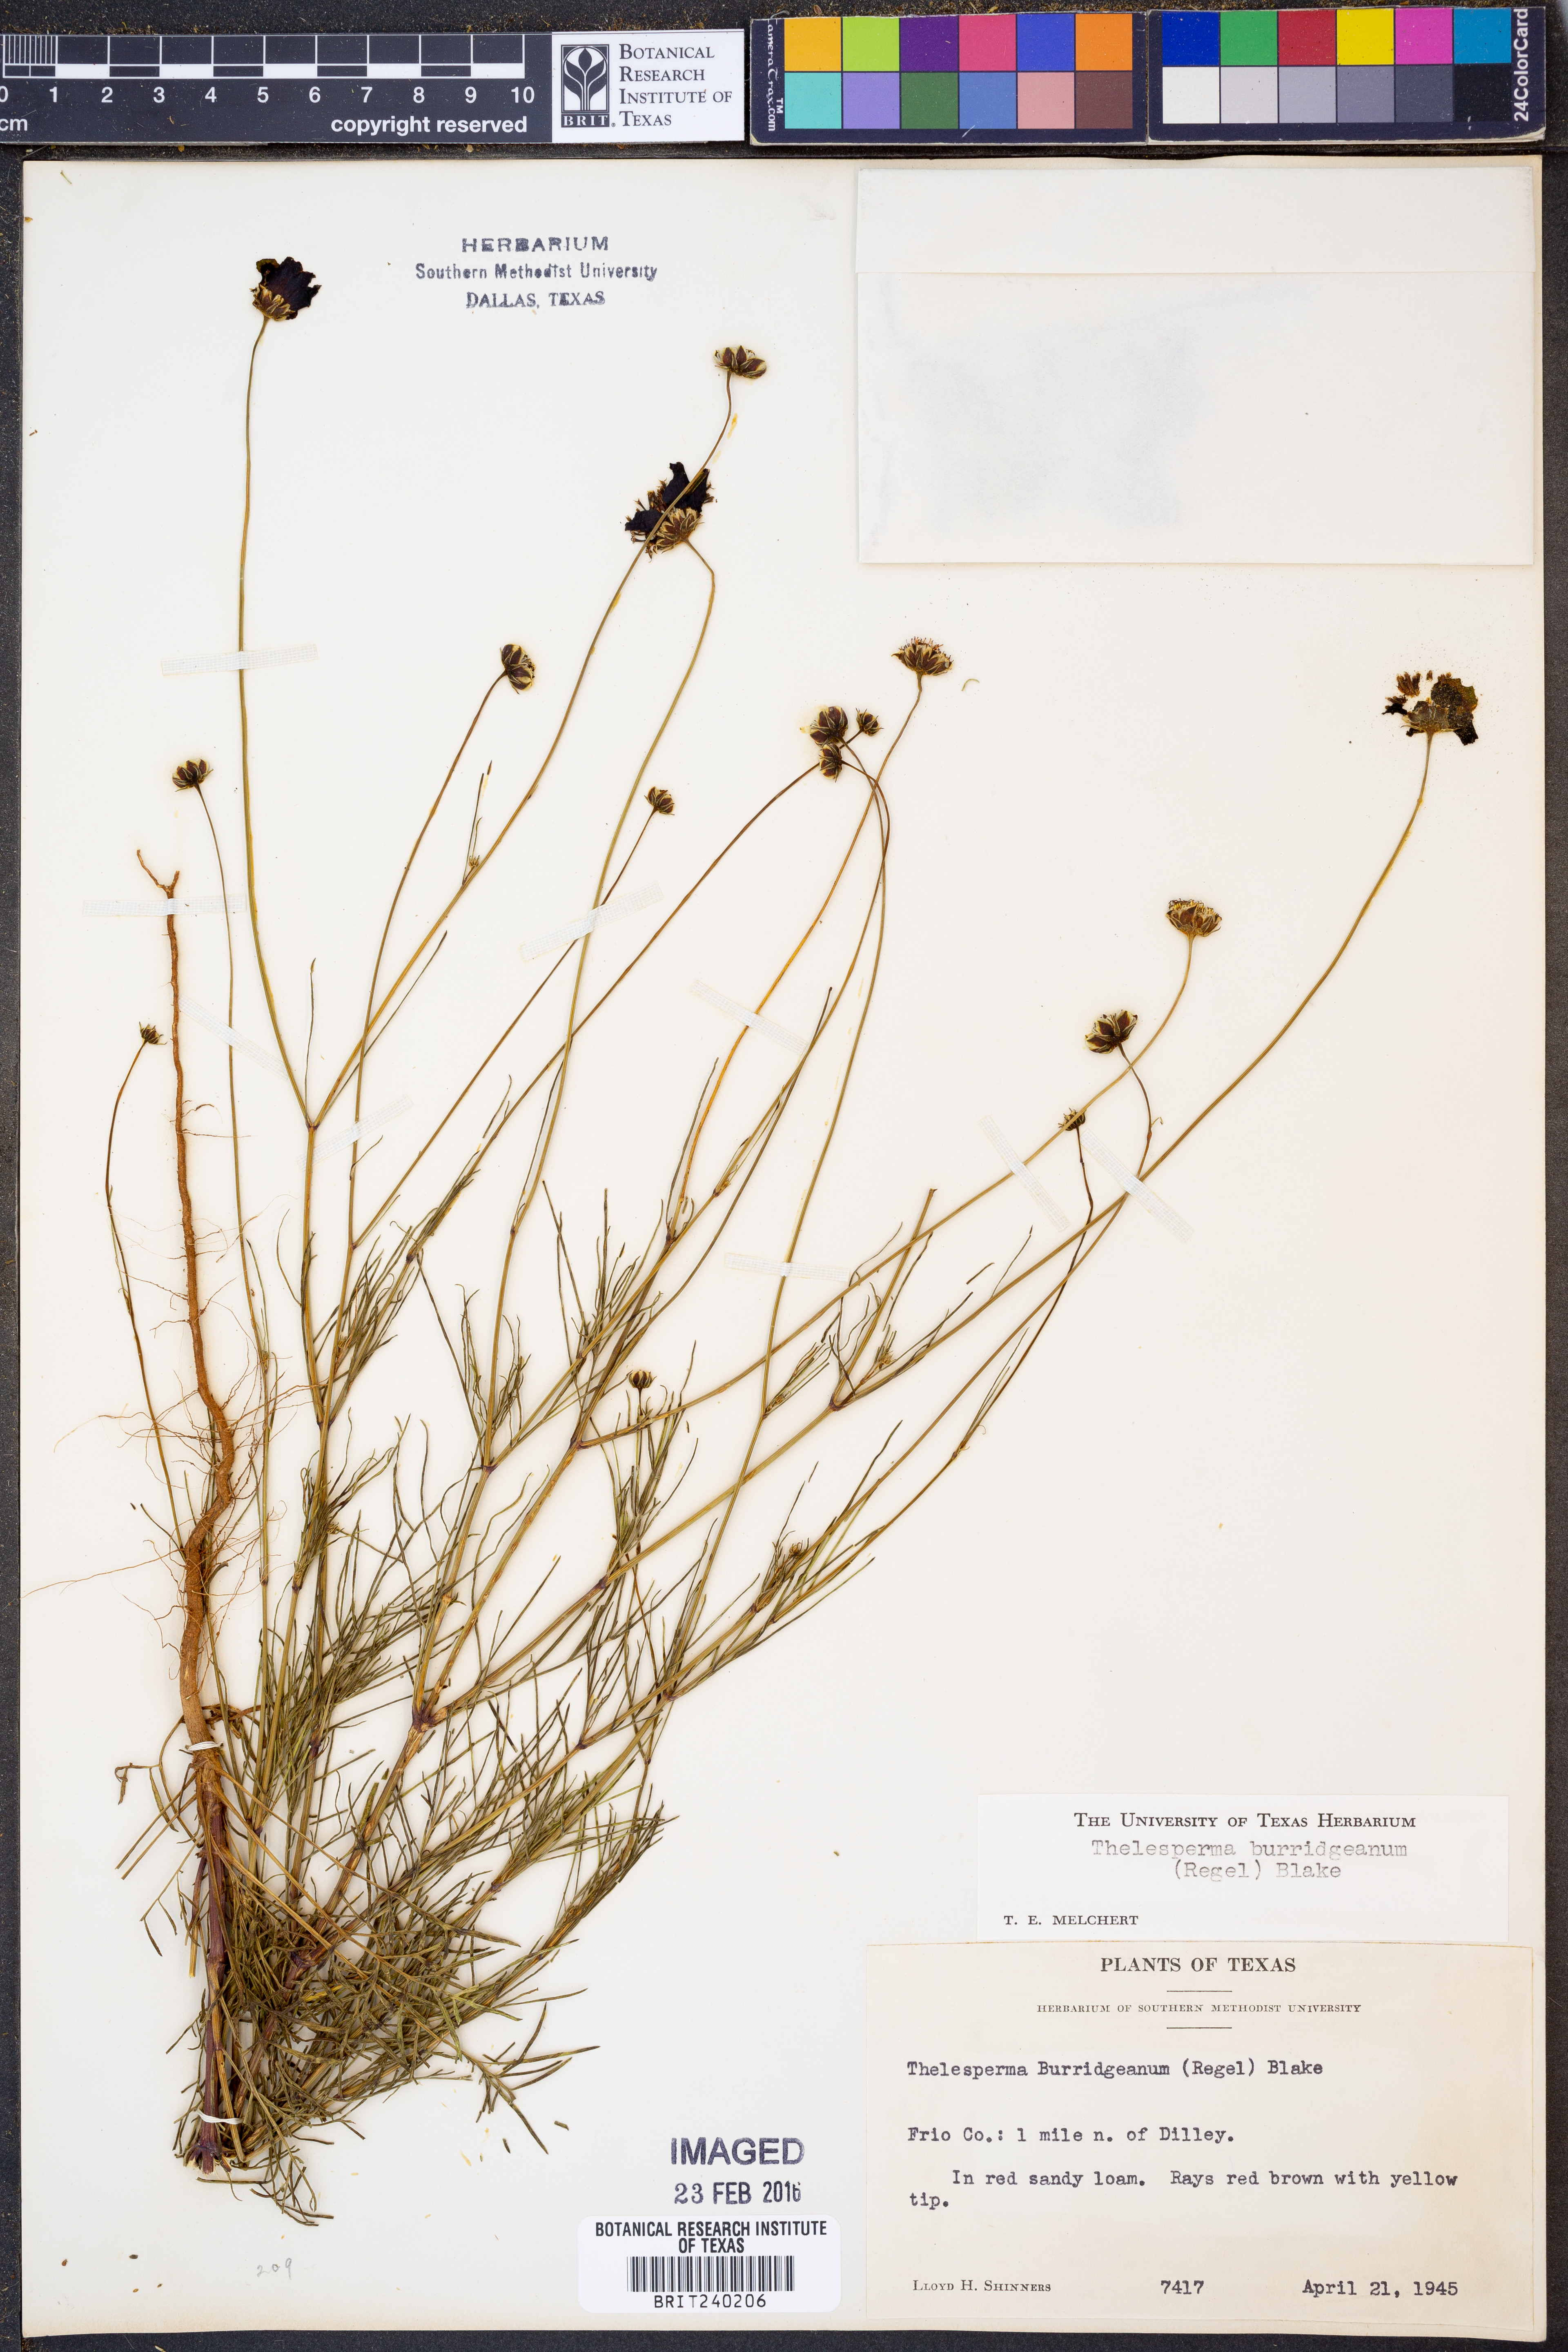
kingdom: Plantae
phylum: Tracheophyta
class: Magnoliopsida
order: Asterales
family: Asteraceae
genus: Thelesperma
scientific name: Thelesperma burridgeanum
